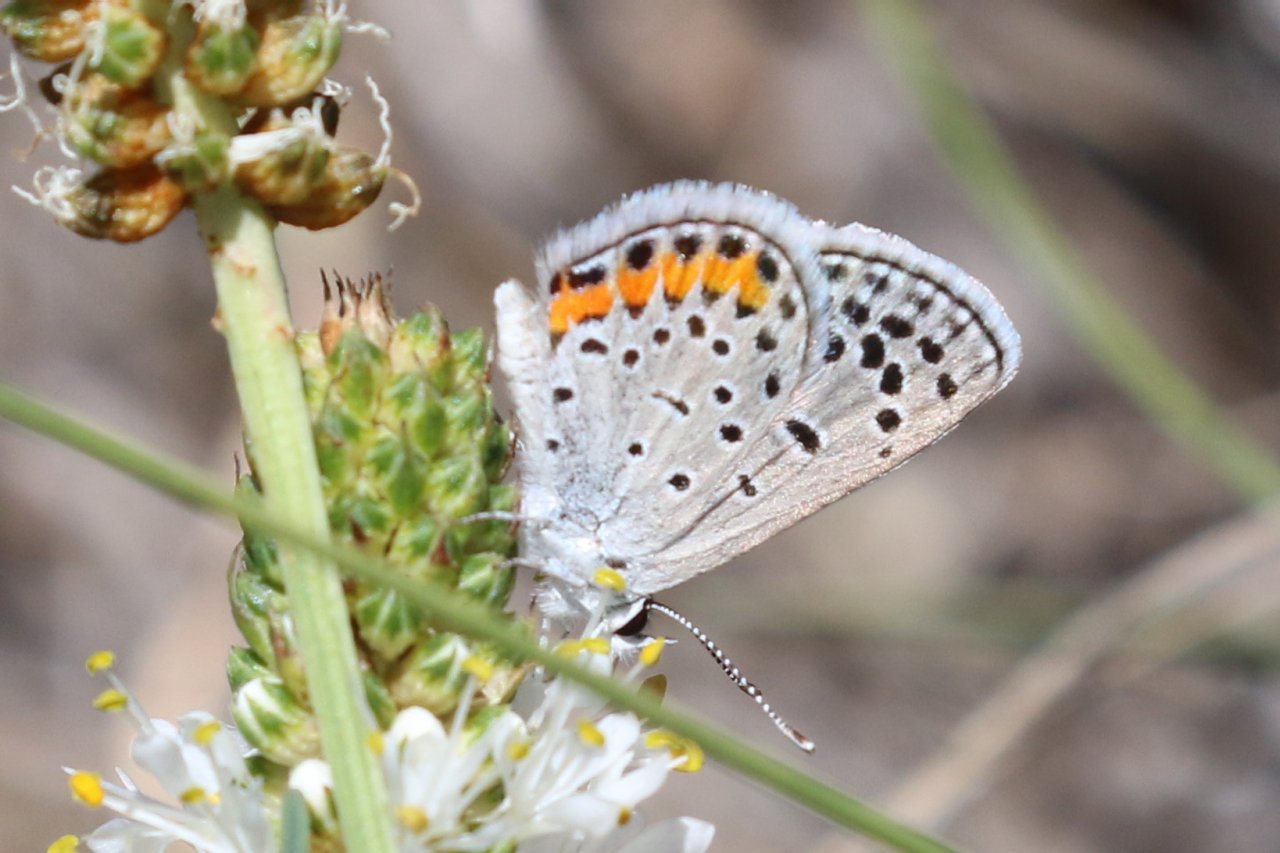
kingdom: Animalia
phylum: Arthropoda
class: Insecta
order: Lepidoptera
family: Lycaenidae
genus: Plebejus
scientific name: Plebejus lupini
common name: Lupine Blue
